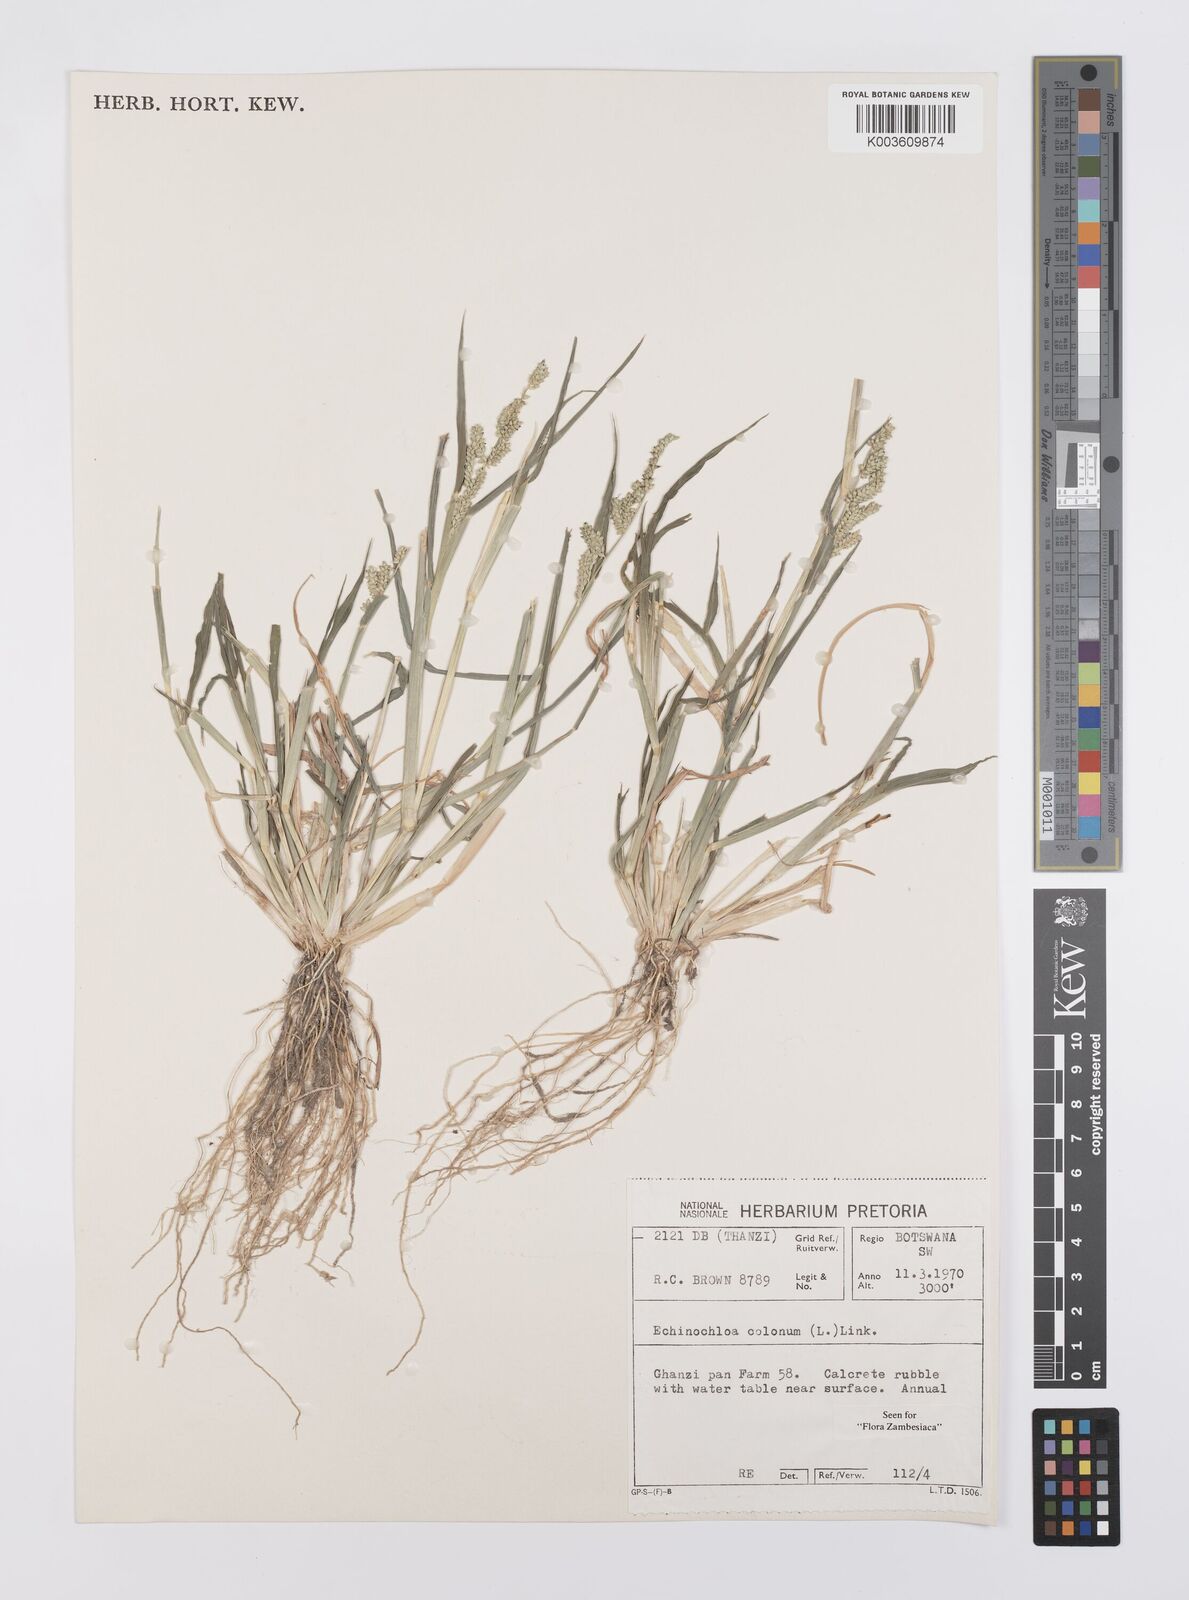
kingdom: Plantae
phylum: Tracheophyta
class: Liliopsida
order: Poales
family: Poaceae
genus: Echinochloa
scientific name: Echinochloa colonum
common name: Jungle rice
